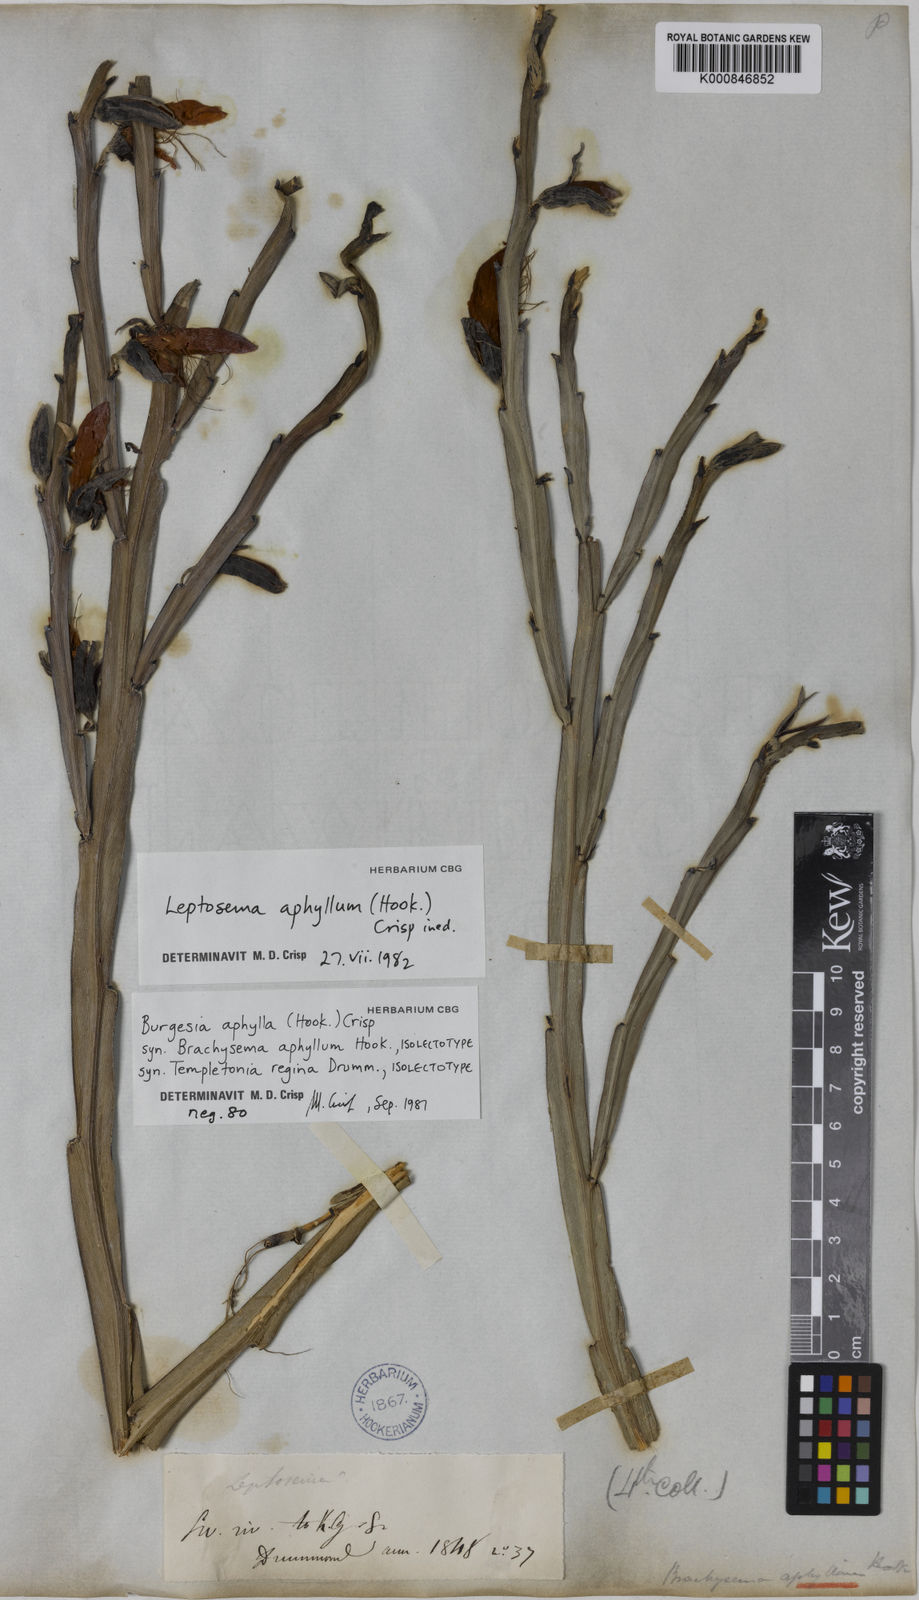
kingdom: Plantae
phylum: Tracheophyta
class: Magnoliopsida
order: Fabales
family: Fabaceae
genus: Leptosema
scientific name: Leptosema aphyllum
